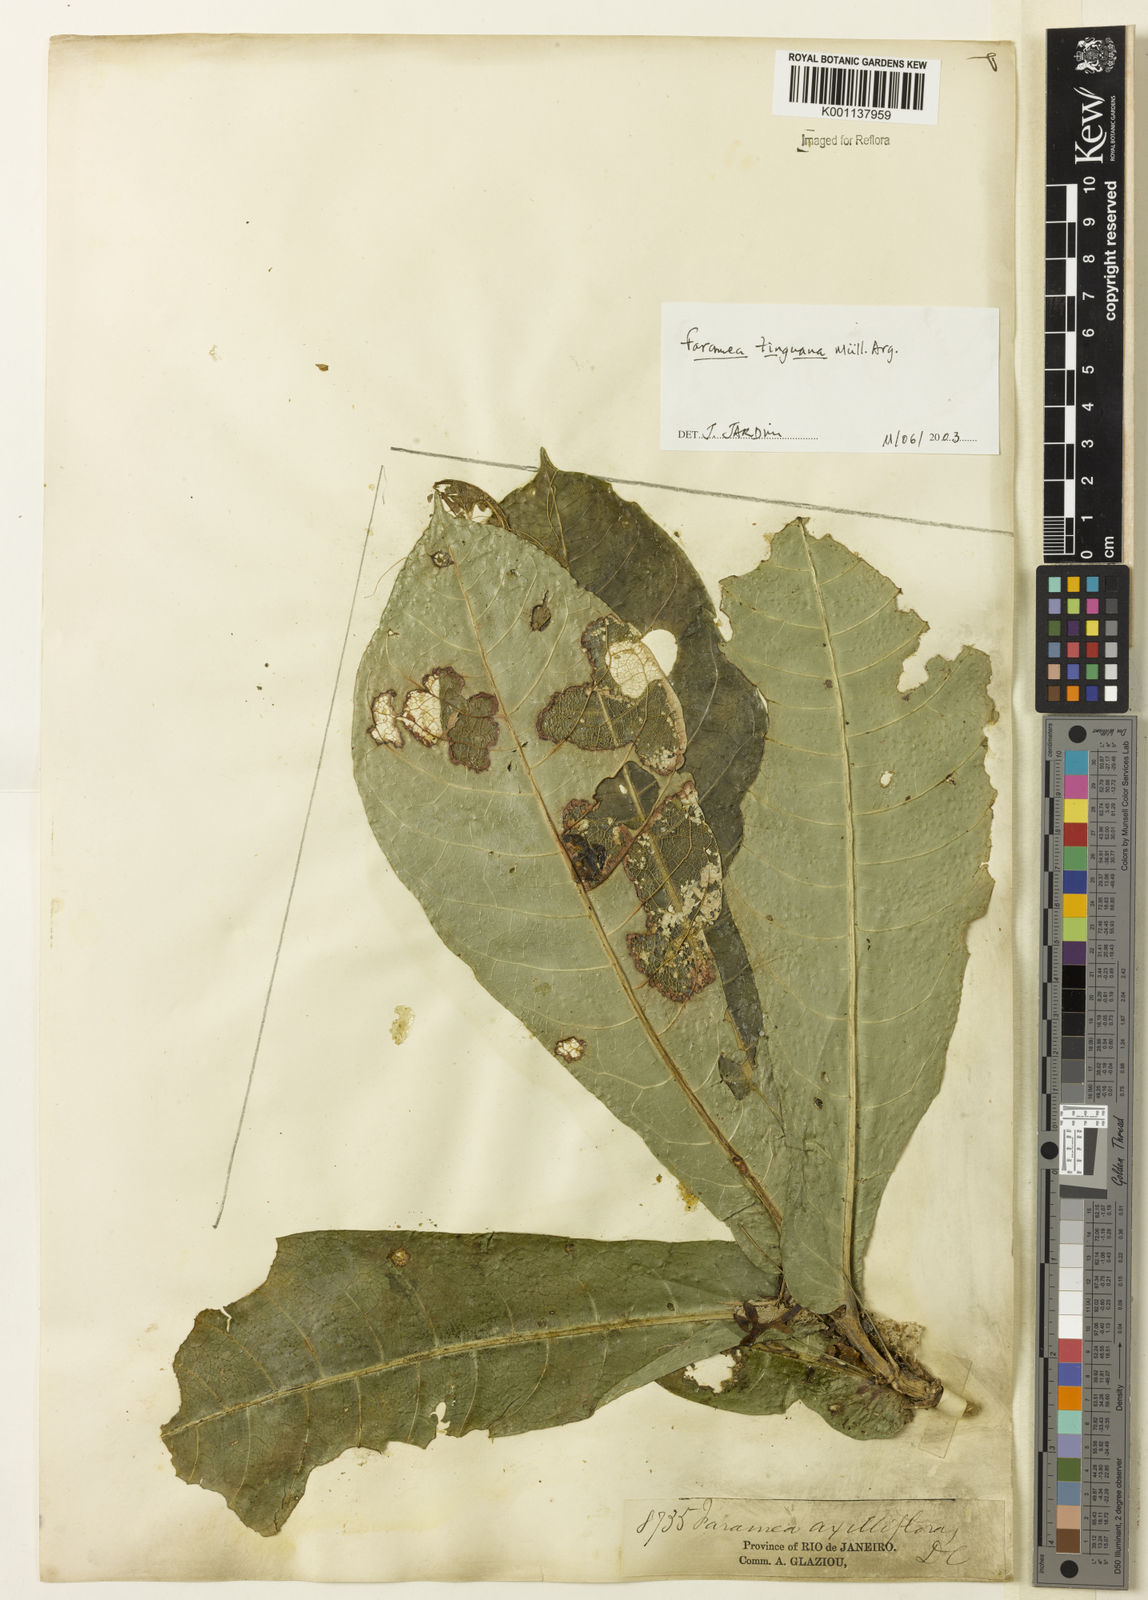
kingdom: Plantae
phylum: Tracheophyta
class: Magnoliopsida
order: Gentianales
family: Rubiaceae
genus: Faramea
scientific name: Faramea
